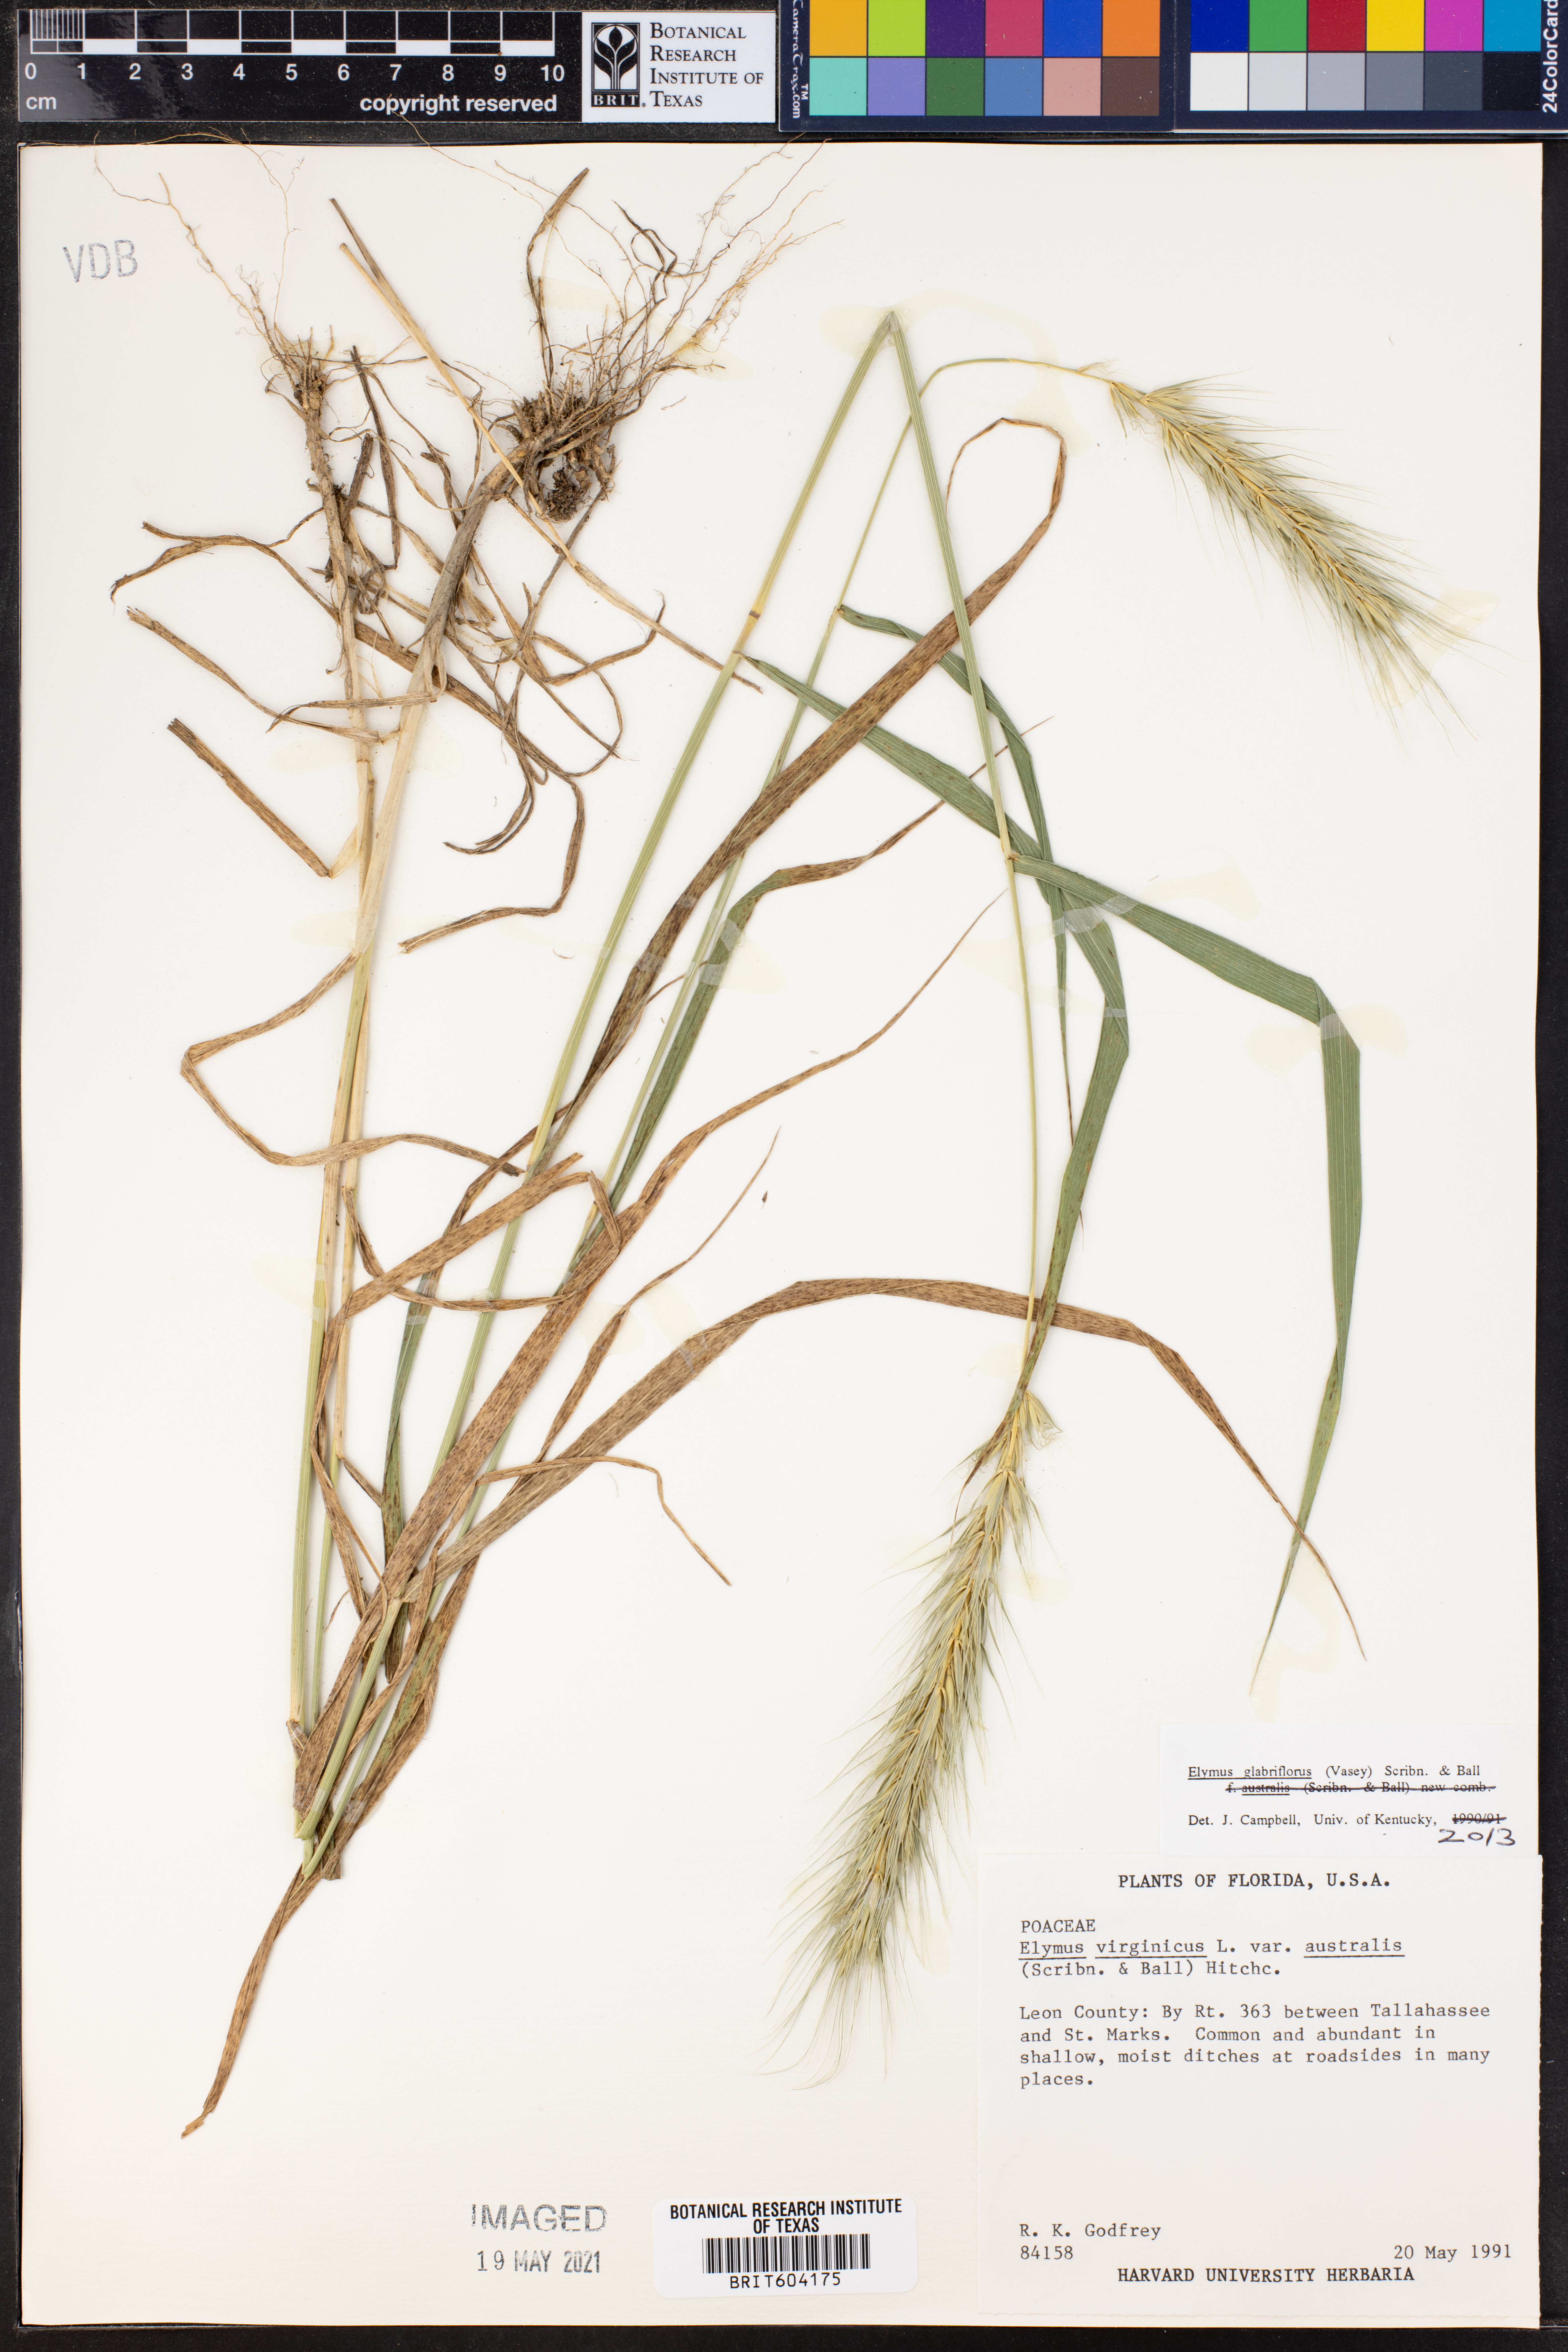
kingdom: Plantae
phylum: Tracheophyta
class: Liliopsida
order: Poales
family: Poaceae
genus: Elymus
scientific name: Elymus virginicus
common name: Common eastern wildrye
